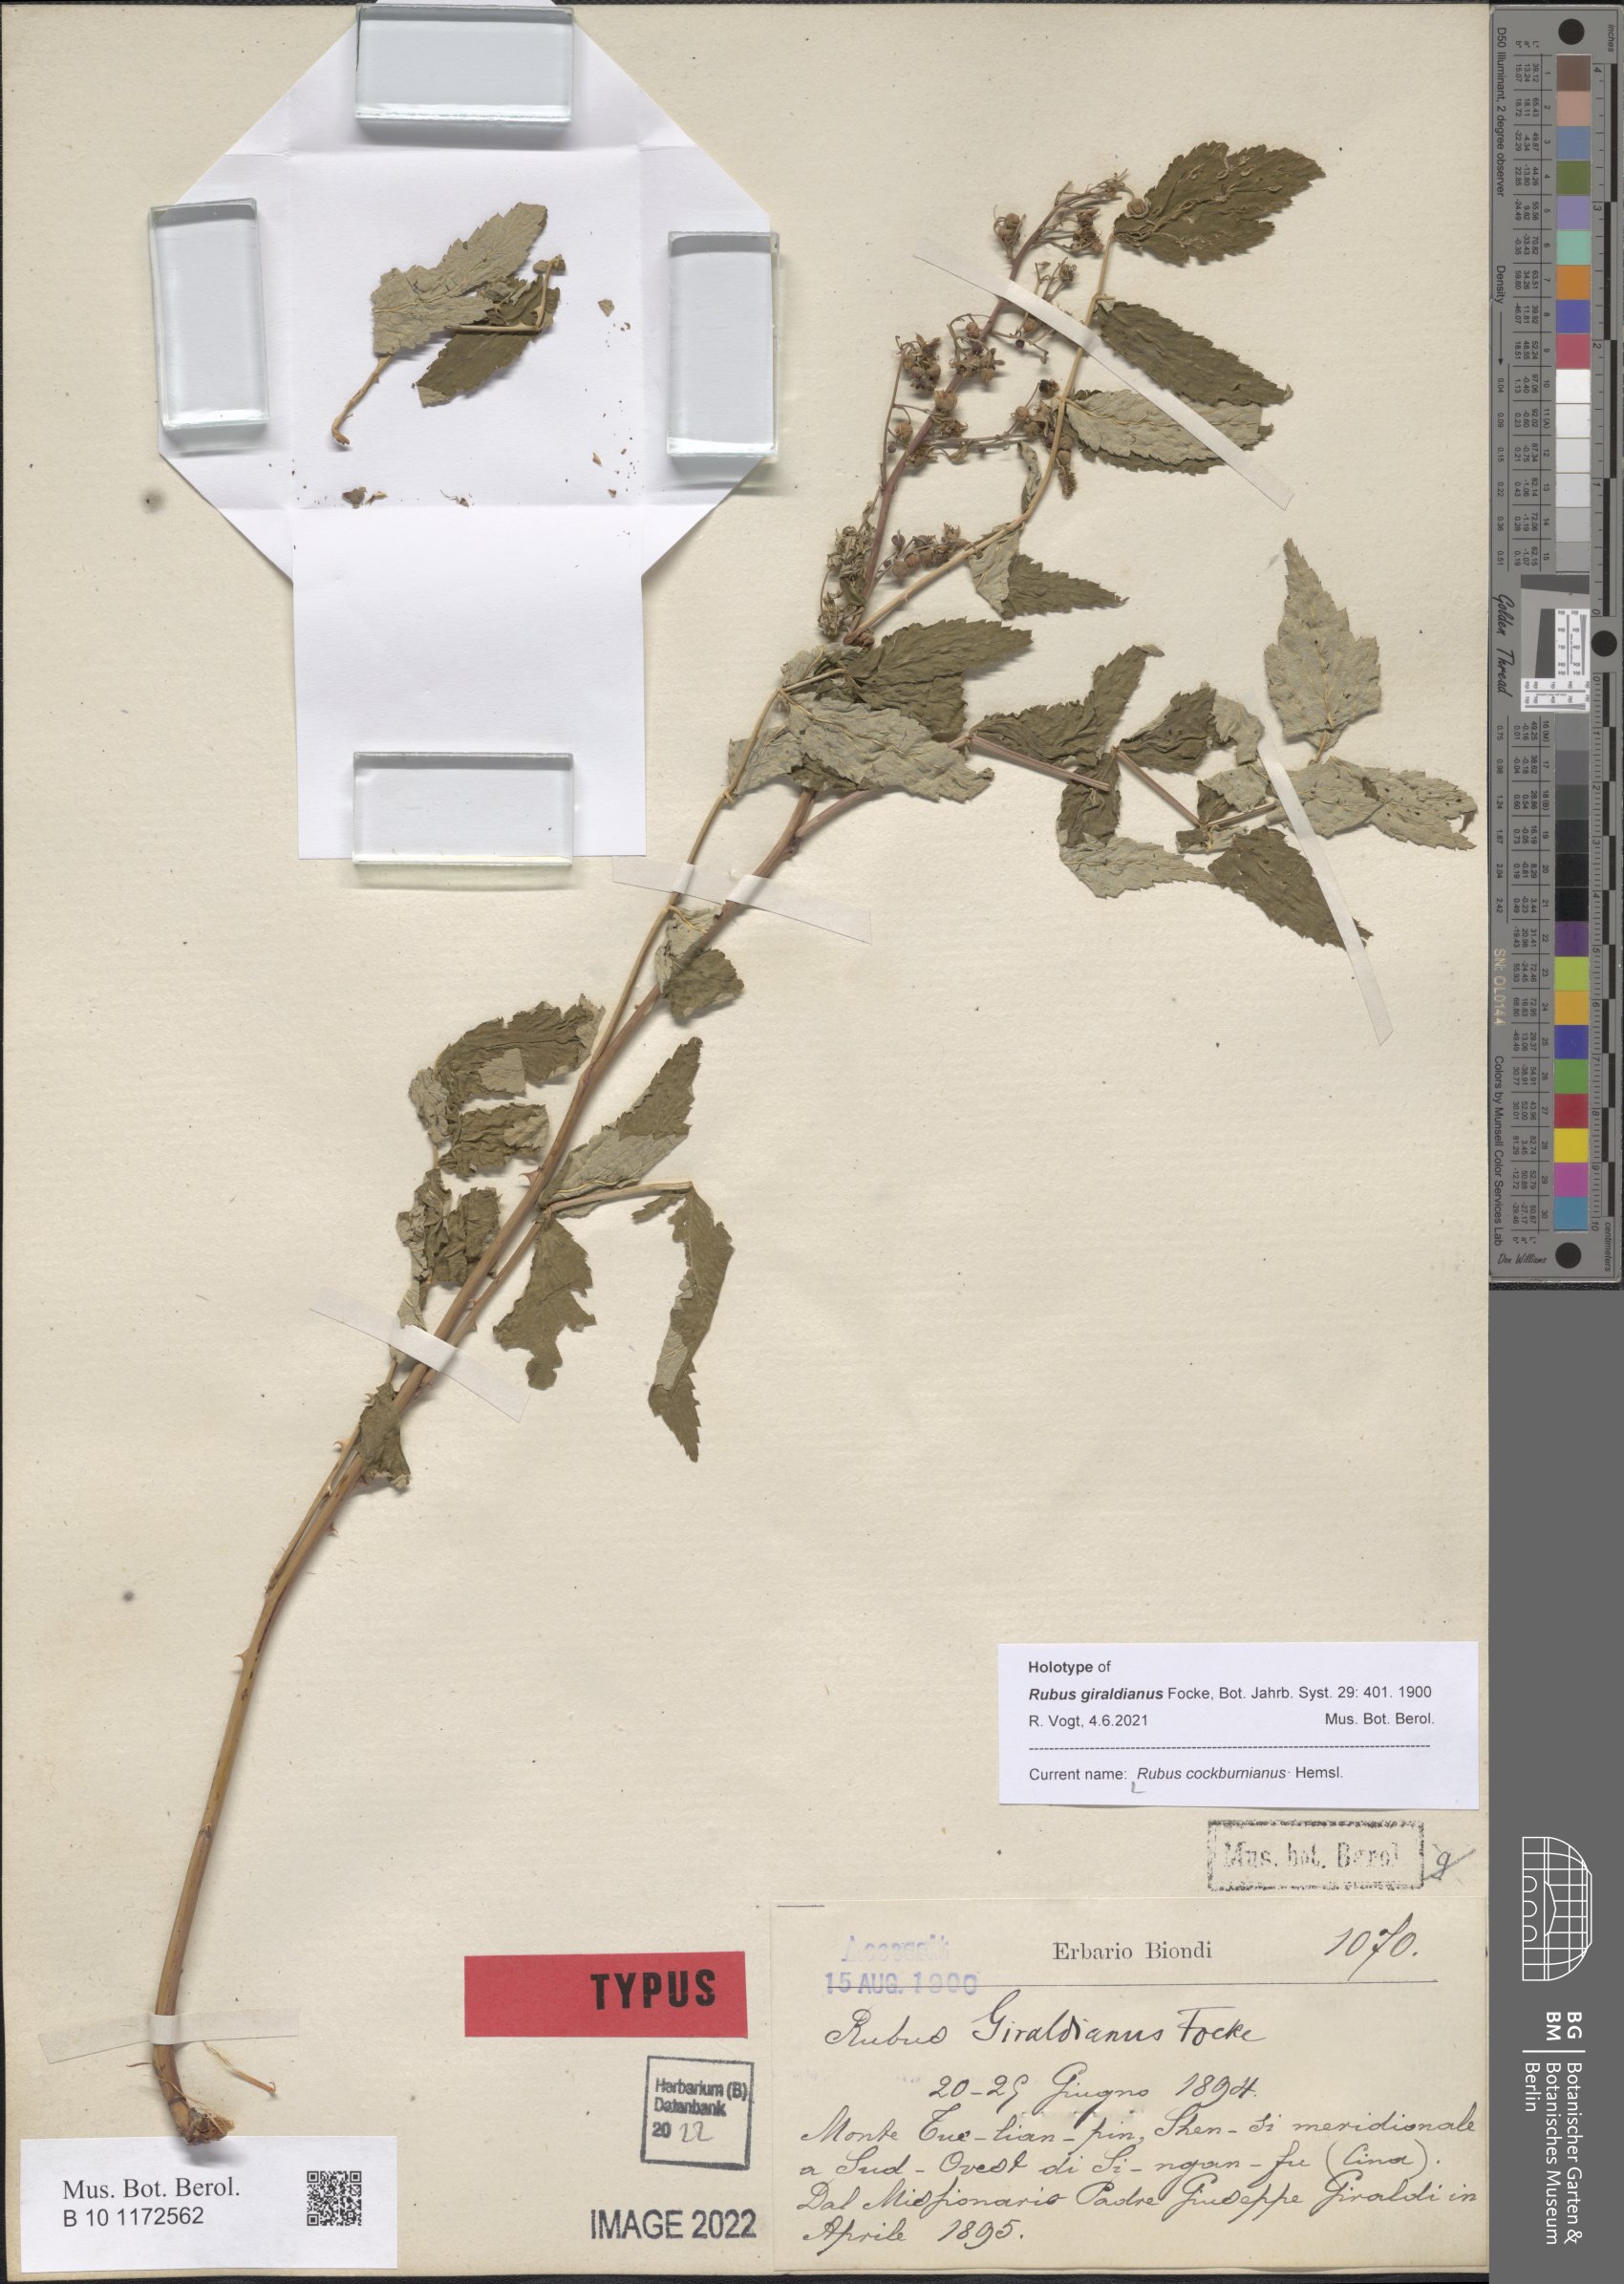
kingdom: Plantae
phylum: Tracheophyta
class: Magnoliopsida
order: Rosales
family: Rosaceae
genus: Rubus
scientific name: Rubus cockburnianus
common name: White-stemmed bramble
